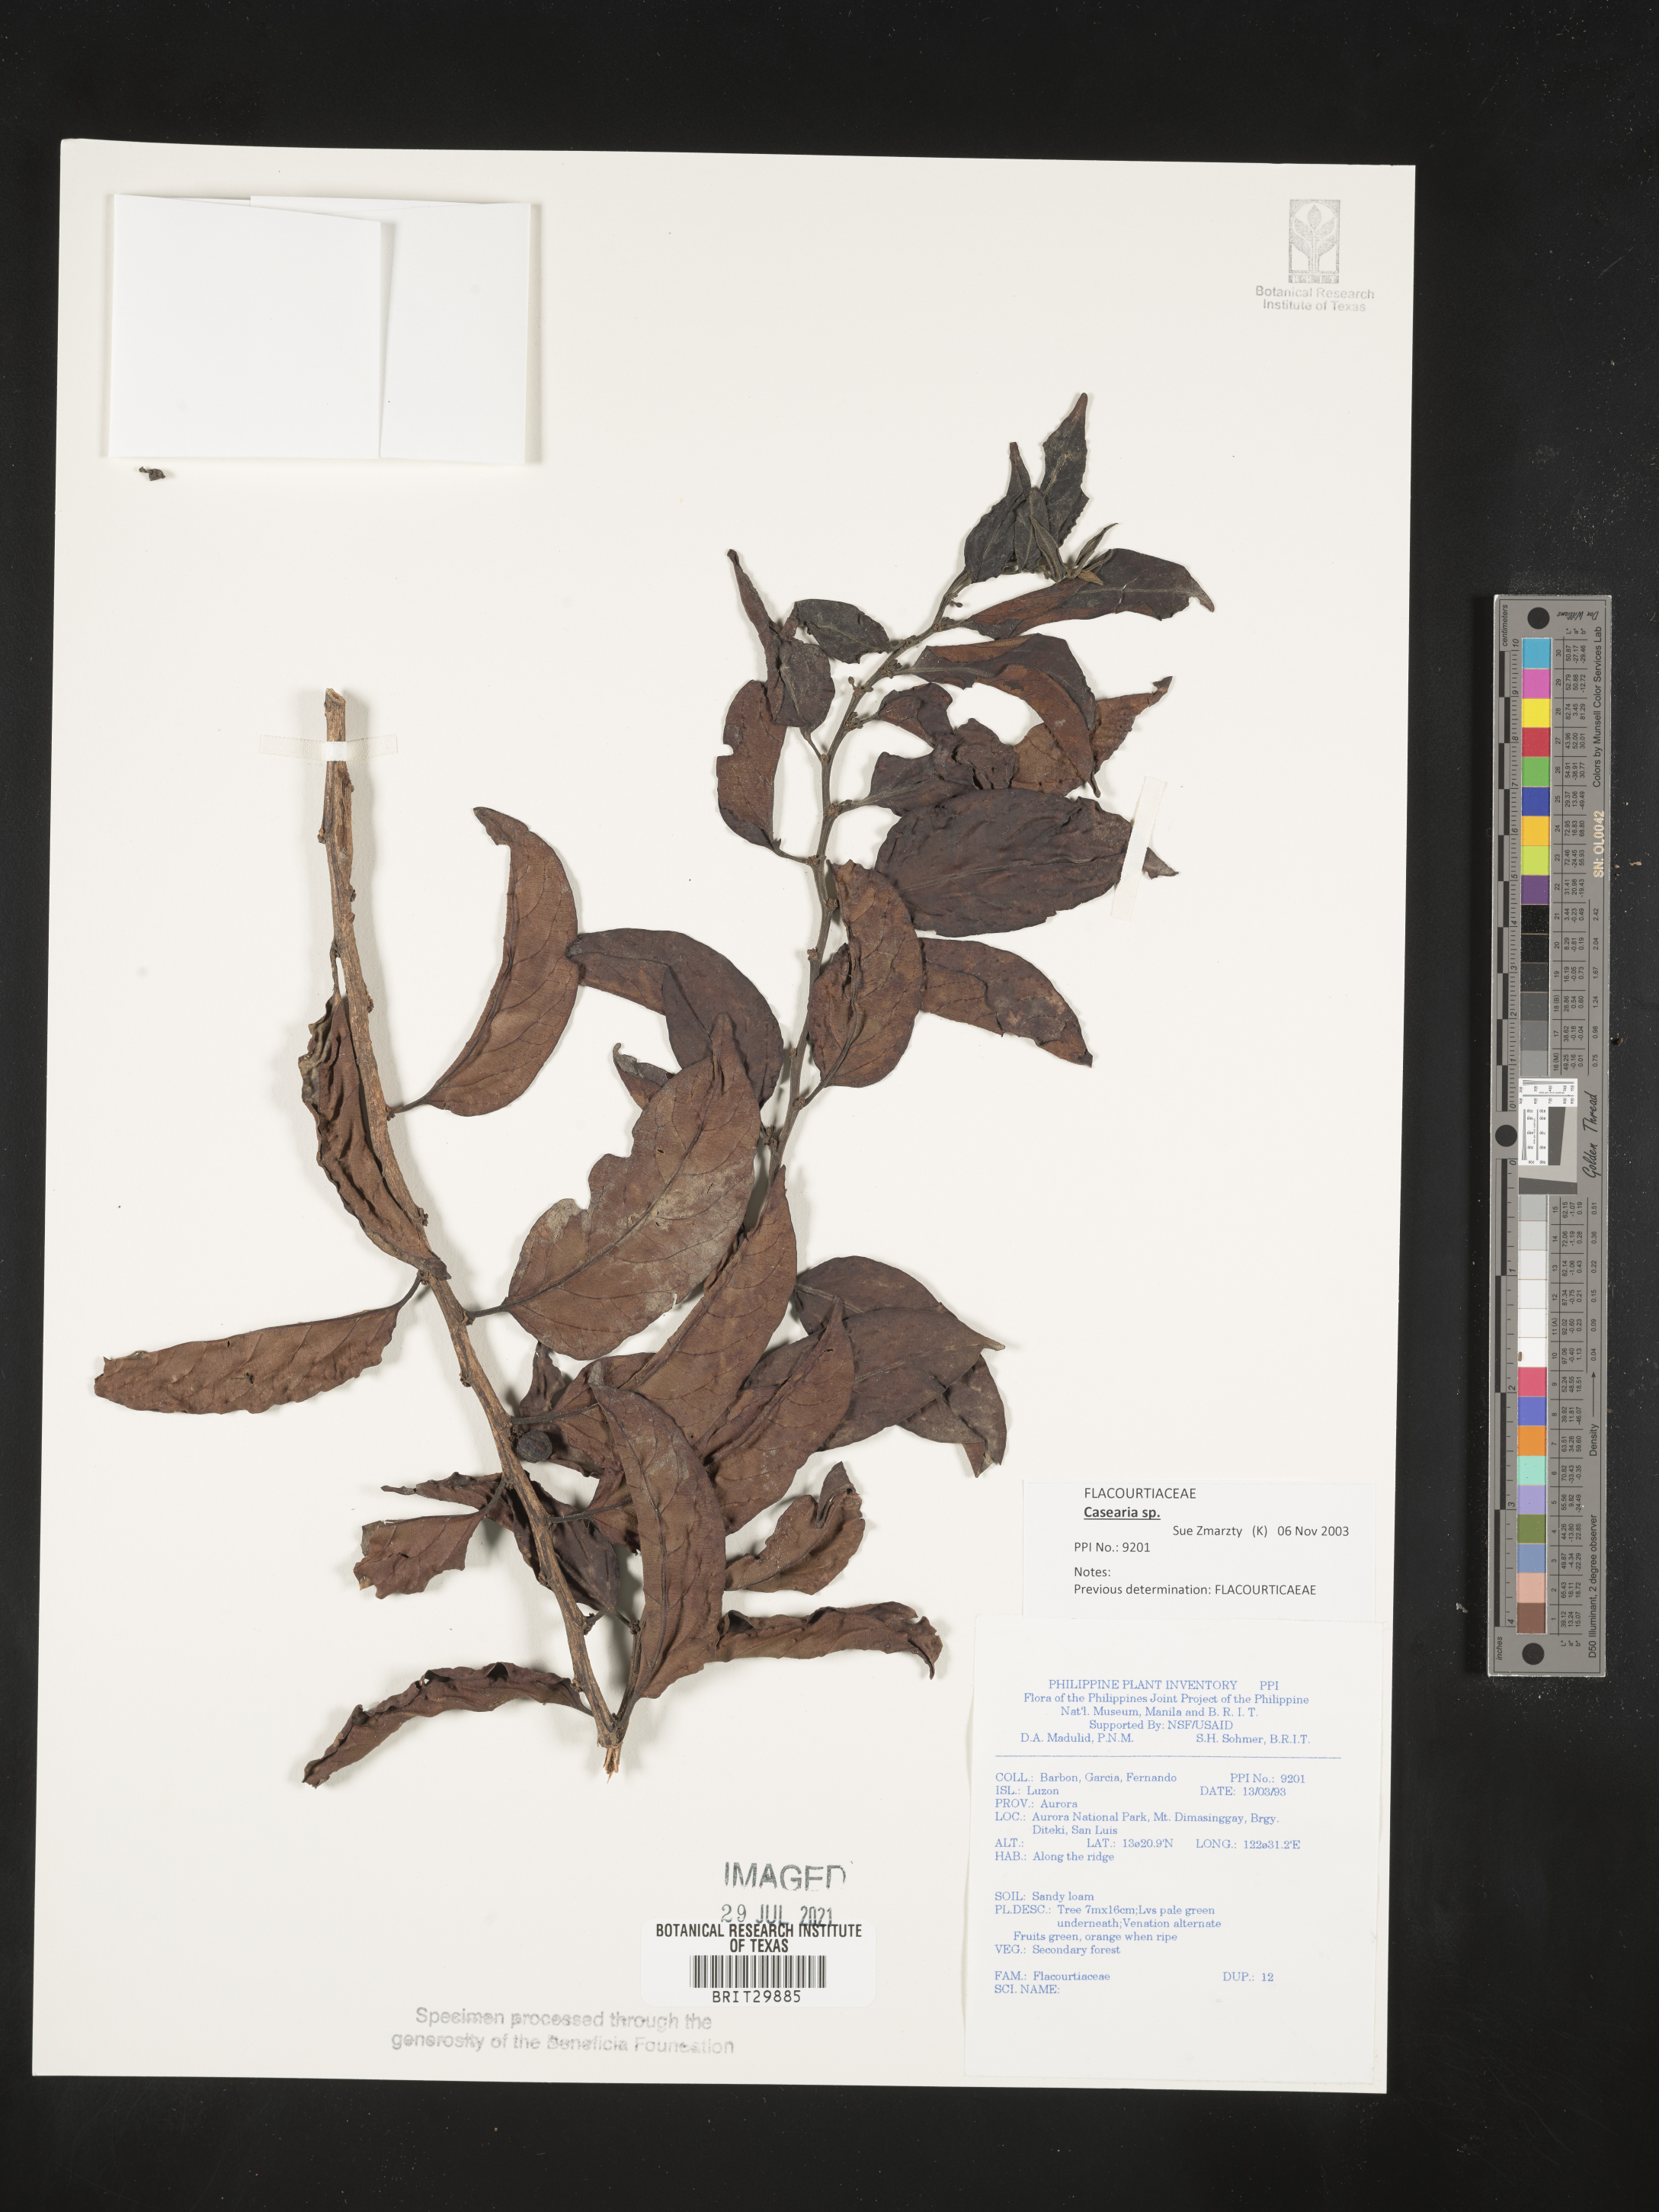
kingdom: Plantae
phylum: Tracheophyta
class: Magnoliopsida
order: Malpighiales
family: Flacourtiaceae
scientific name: Flacourtiaceae
